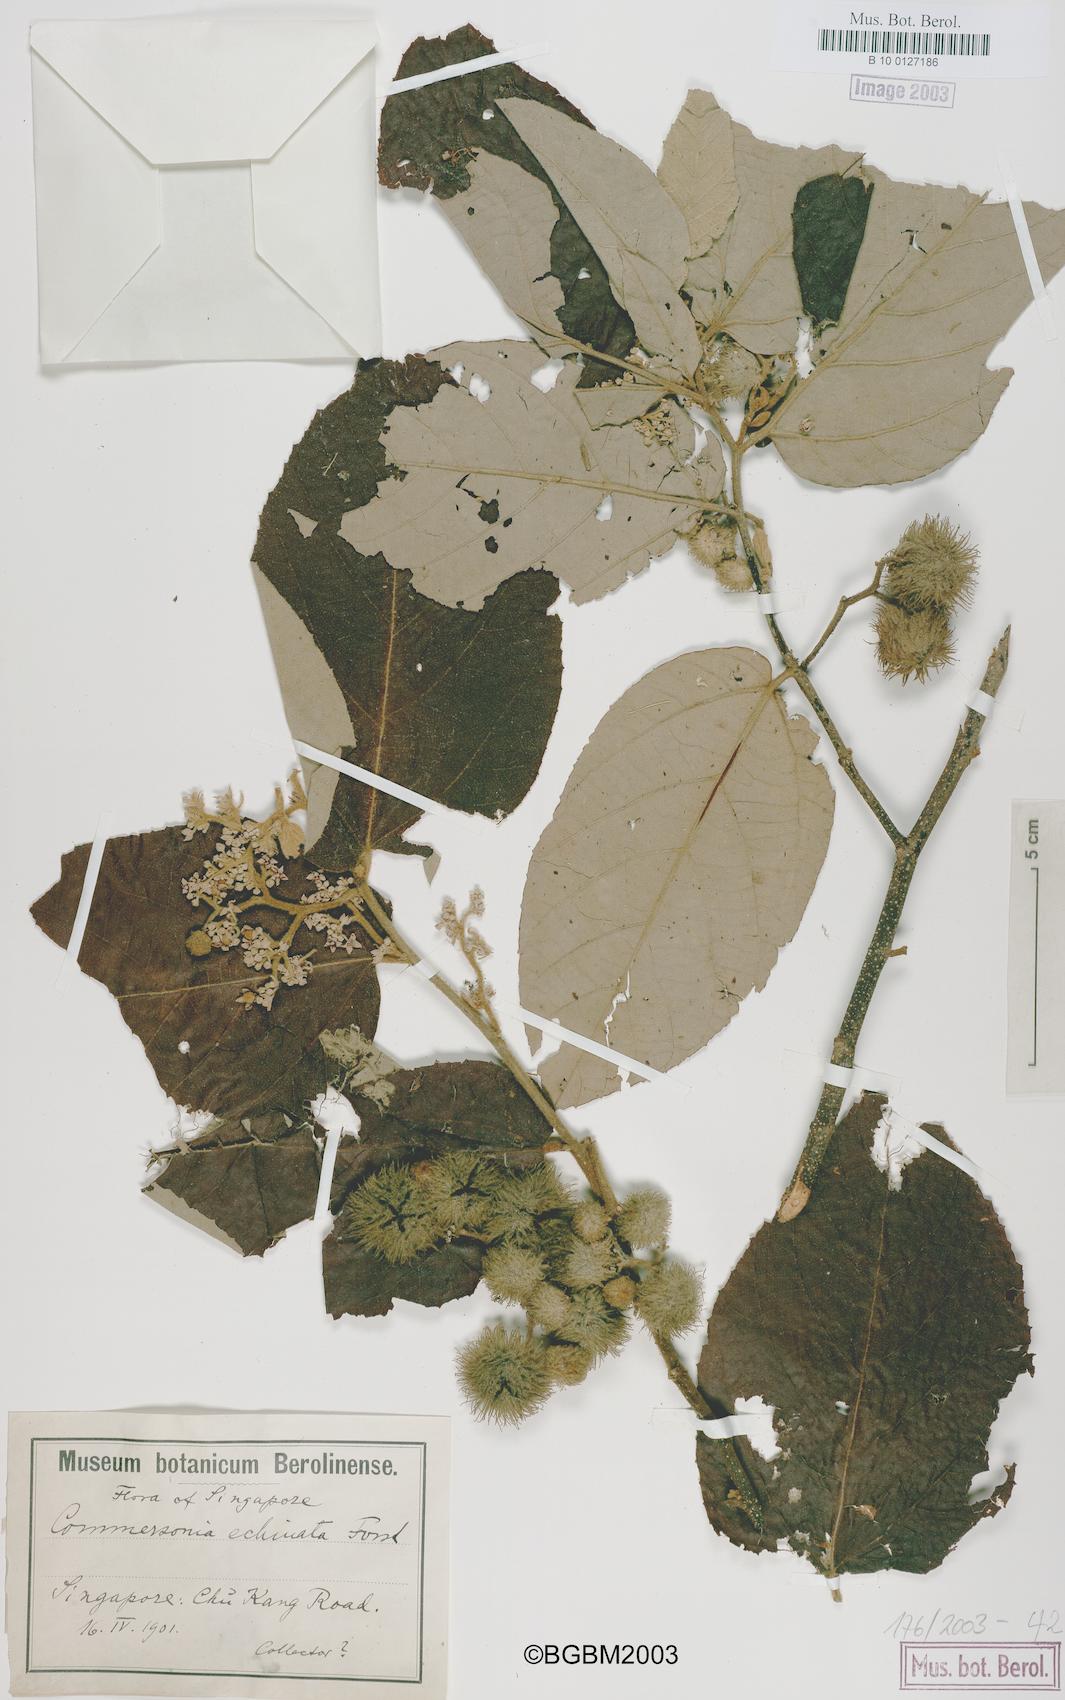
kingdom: Plantae
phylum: Tracheophyta
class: Magnoliopsida
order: Malvales
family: Malvaceae
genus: Commersonia
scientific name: Commersonia bartramia
